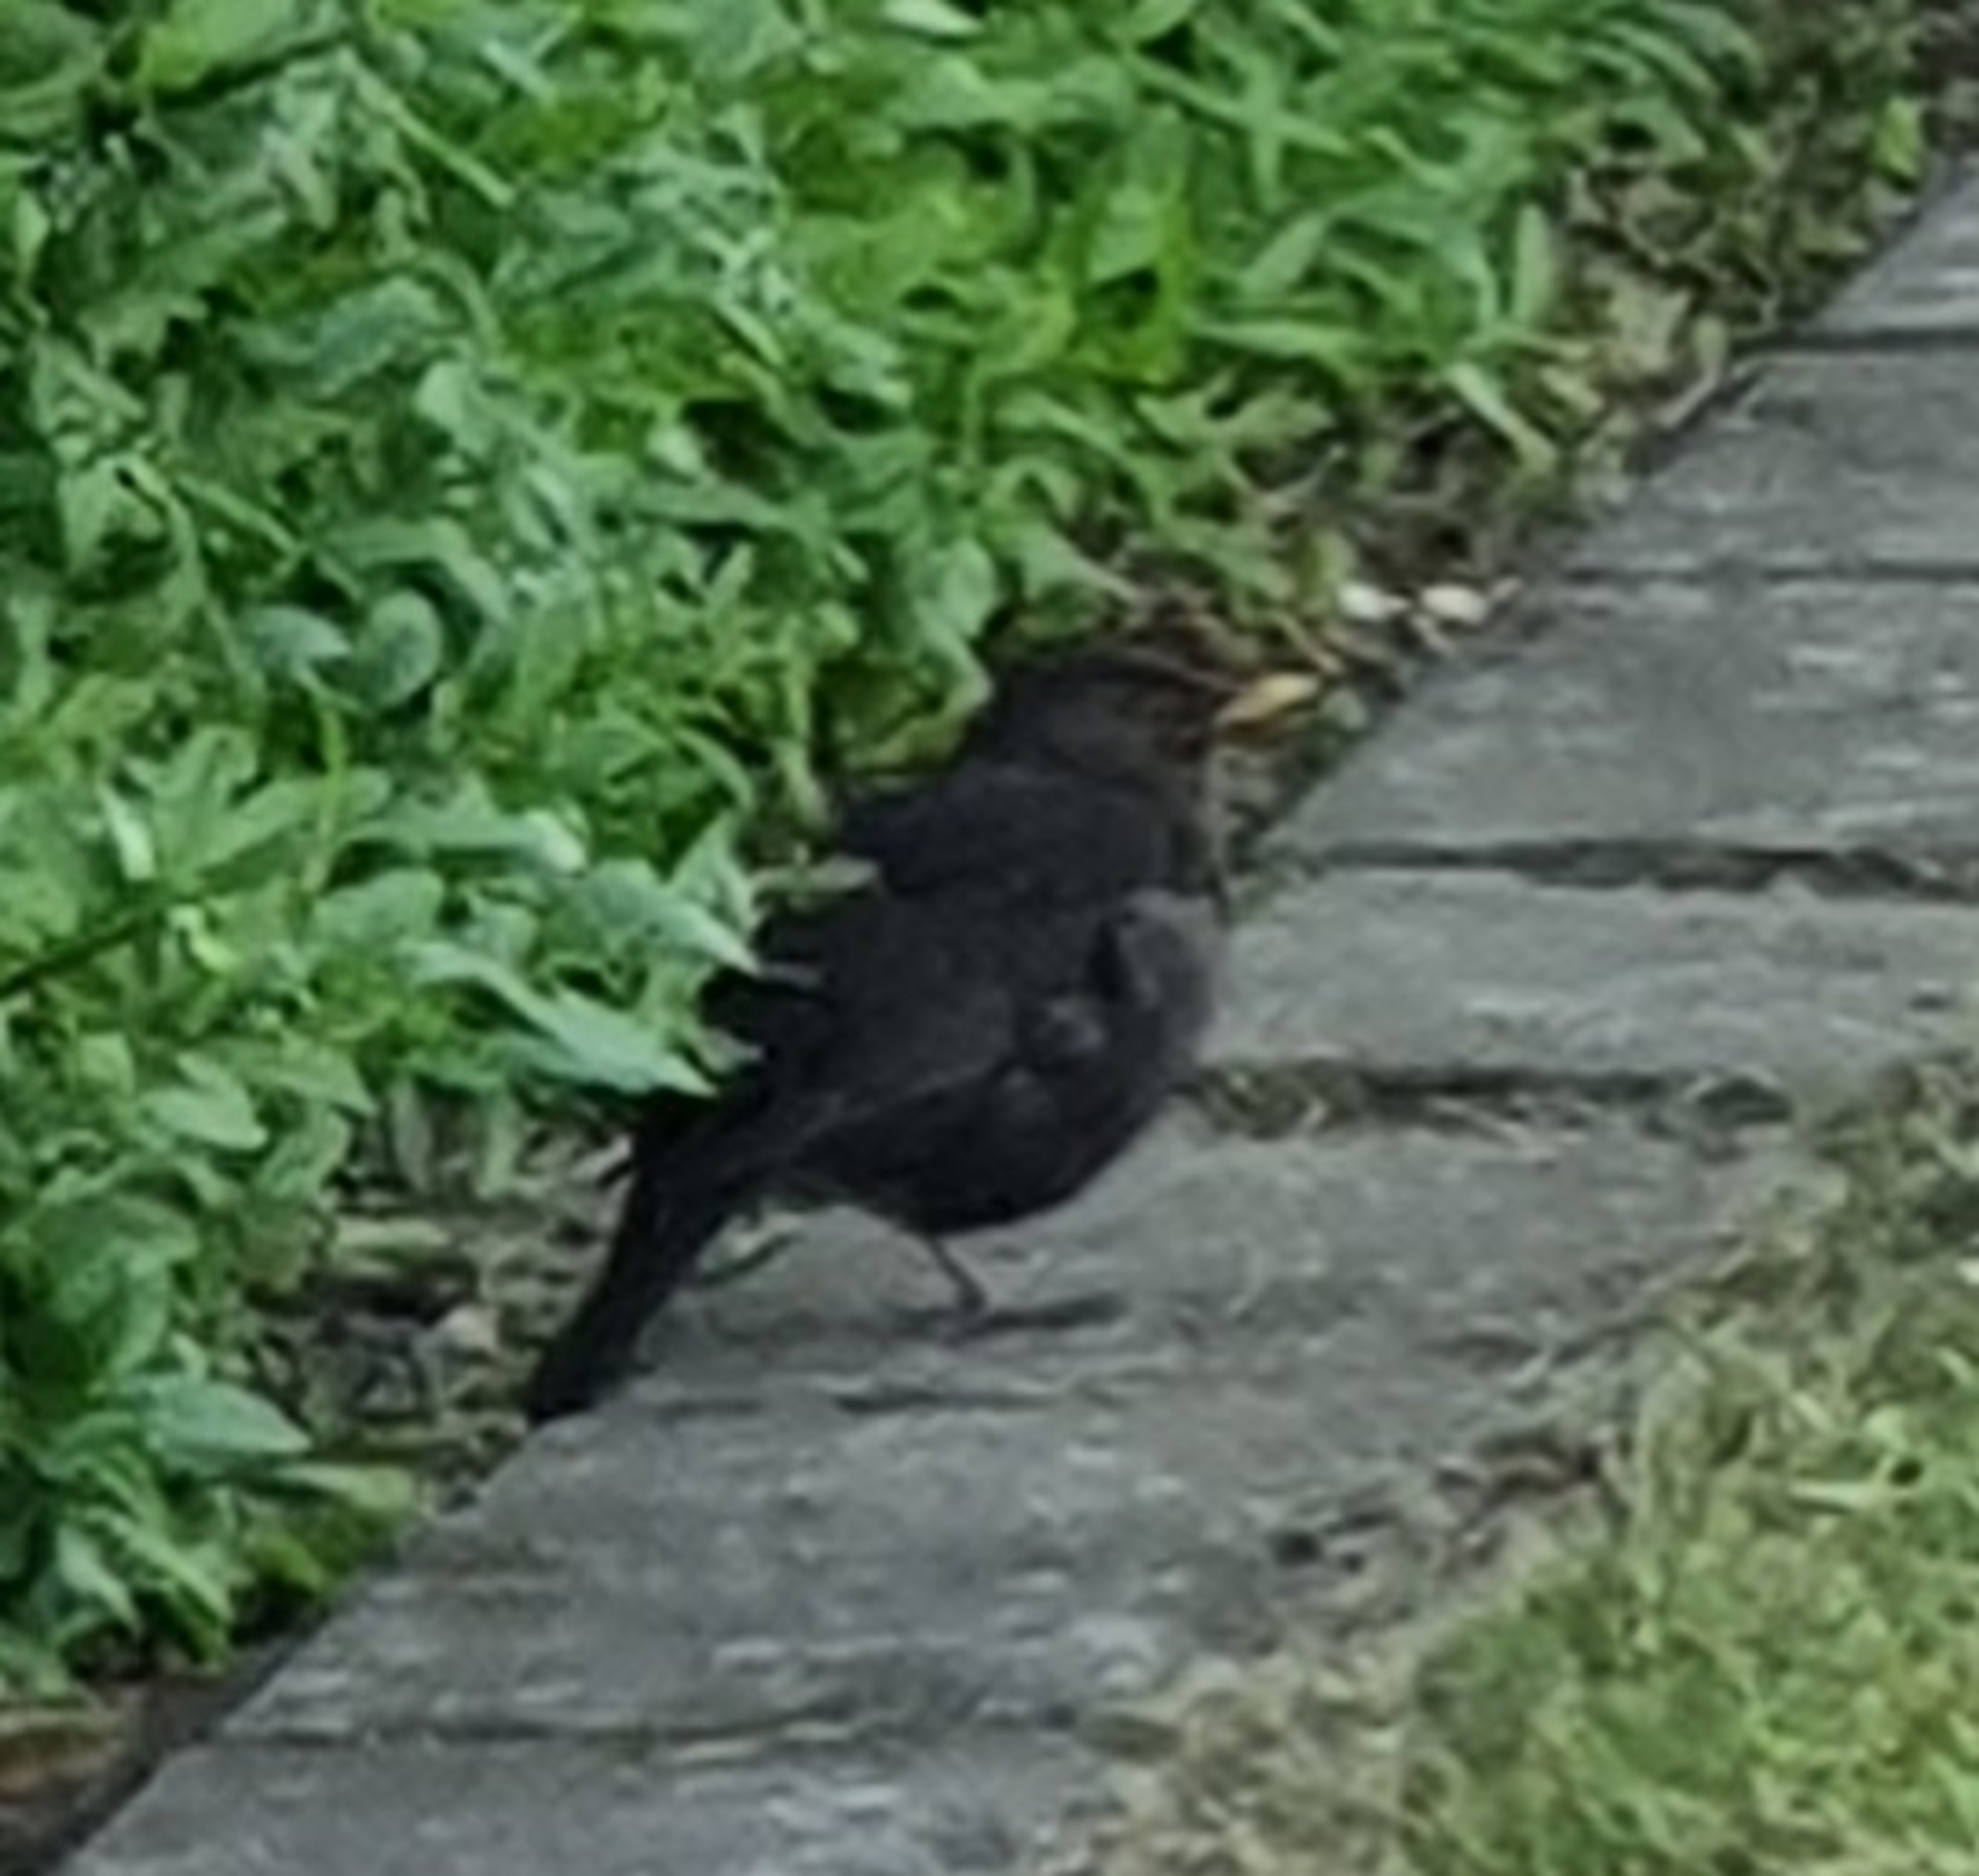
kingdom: Animalia
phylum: Chordata
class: Aves
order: Passeriformes
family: Turdidae
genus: Turdus
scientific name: Turdus merula
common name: Solsort
